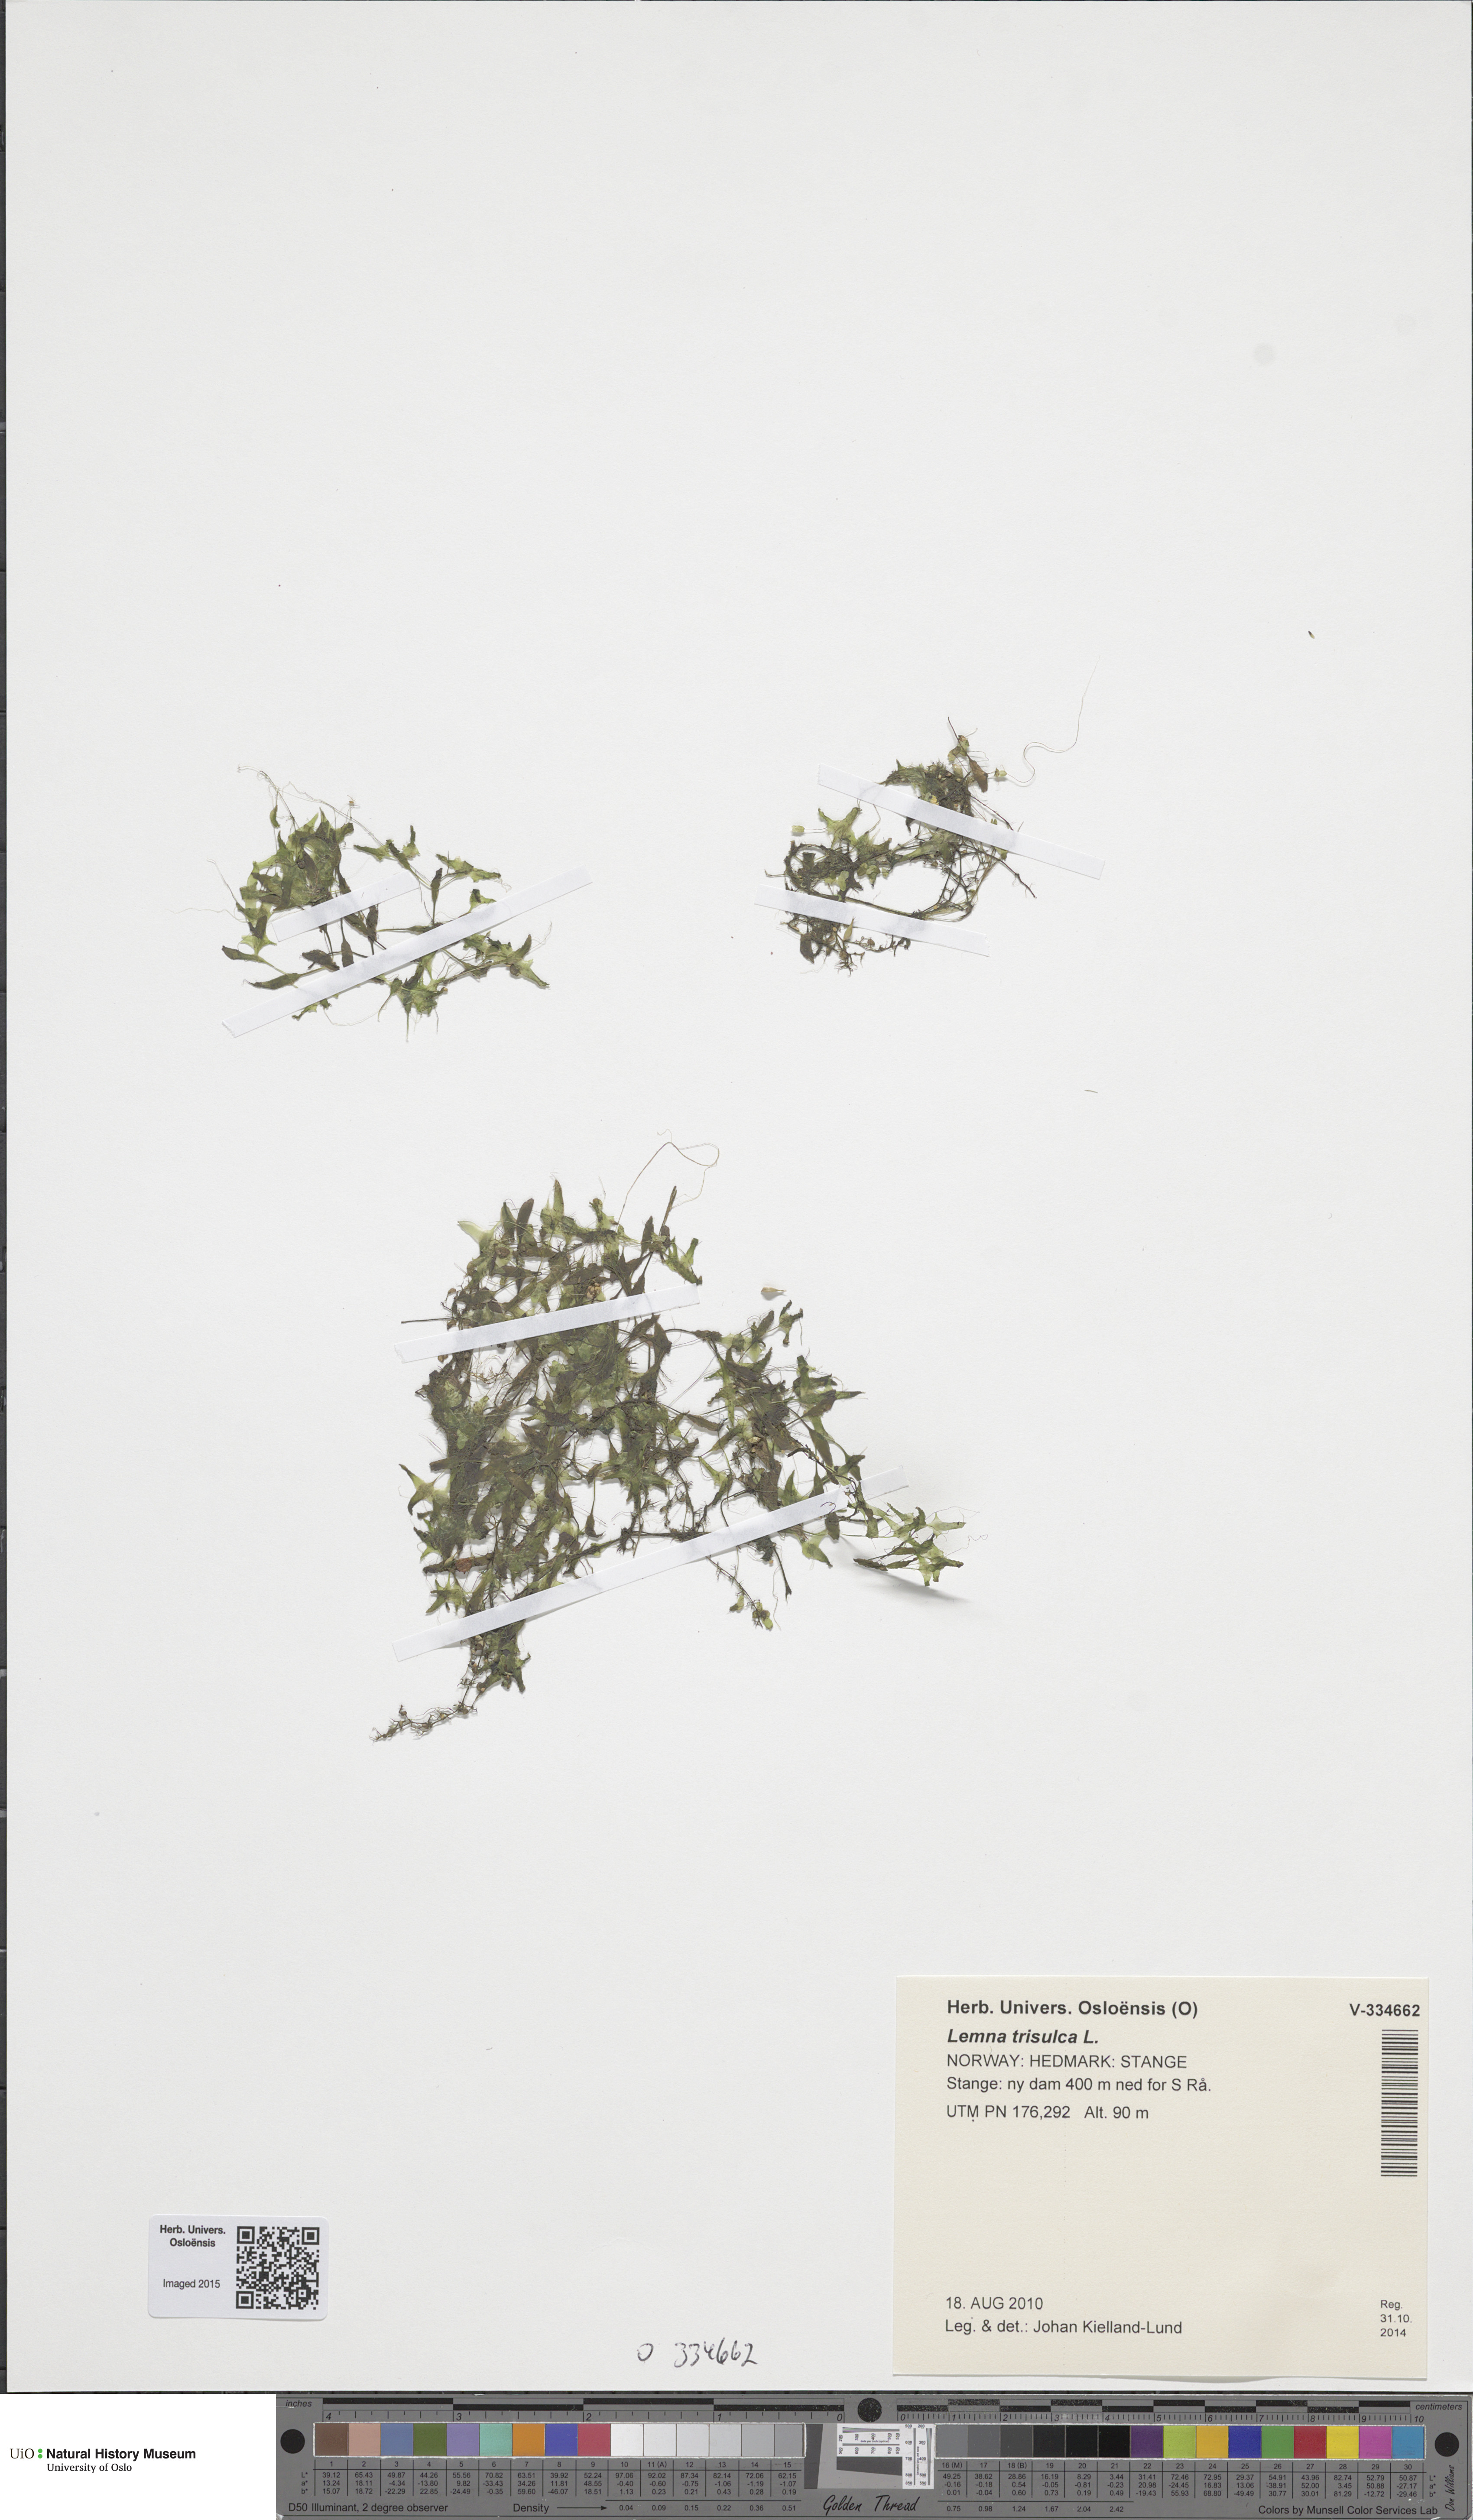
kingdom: Plantae
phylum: Tracheophyta
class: Liliopsida
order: Alismatales
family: Araceae
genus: Lemna
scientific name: Lemna trisulca
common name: Ivy-leaved duckweed
